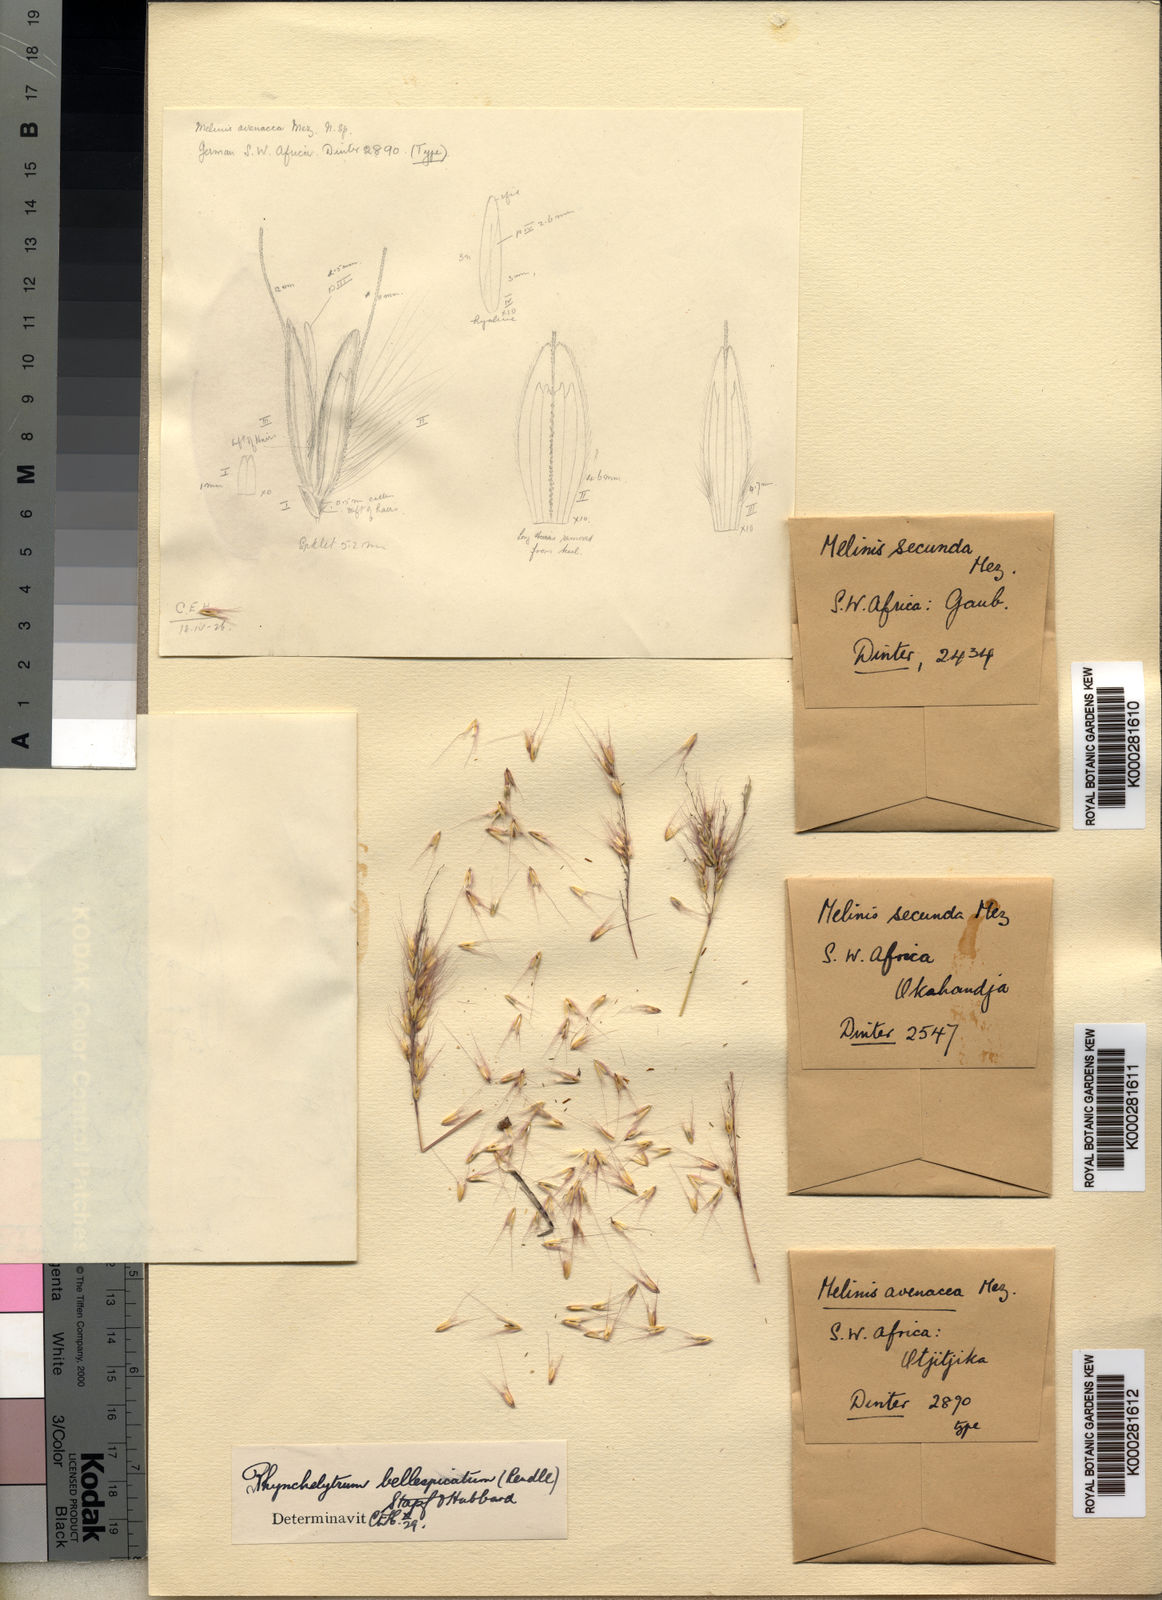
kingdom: Plantae
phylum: Tracheophyta
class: Liliopsida
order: Poales
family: Poaceae
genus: Melinis
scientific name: Melinis longiseta
